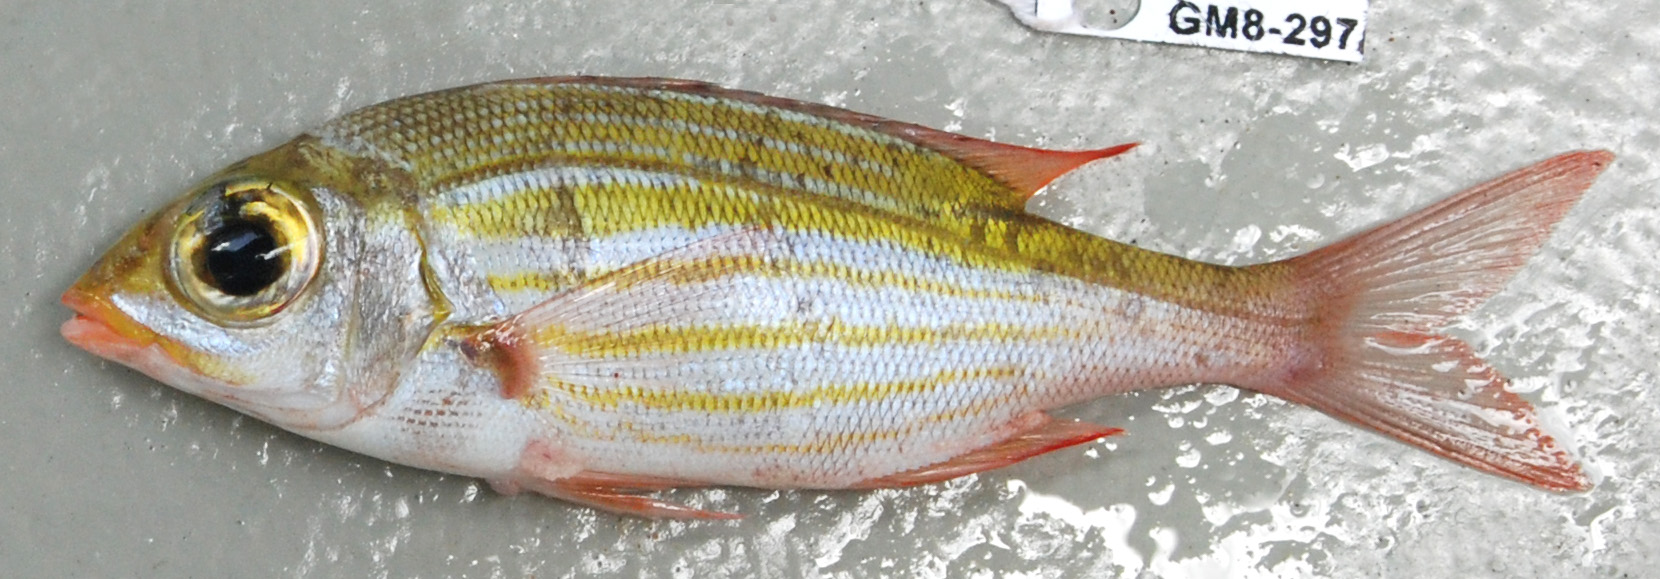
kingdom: Animalia
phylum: Chordata
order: Perciformes
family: Lethrinidae
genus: Gnathodentex
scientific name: Gnathodentex aureolineatus
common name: Gold-lined sea bream
